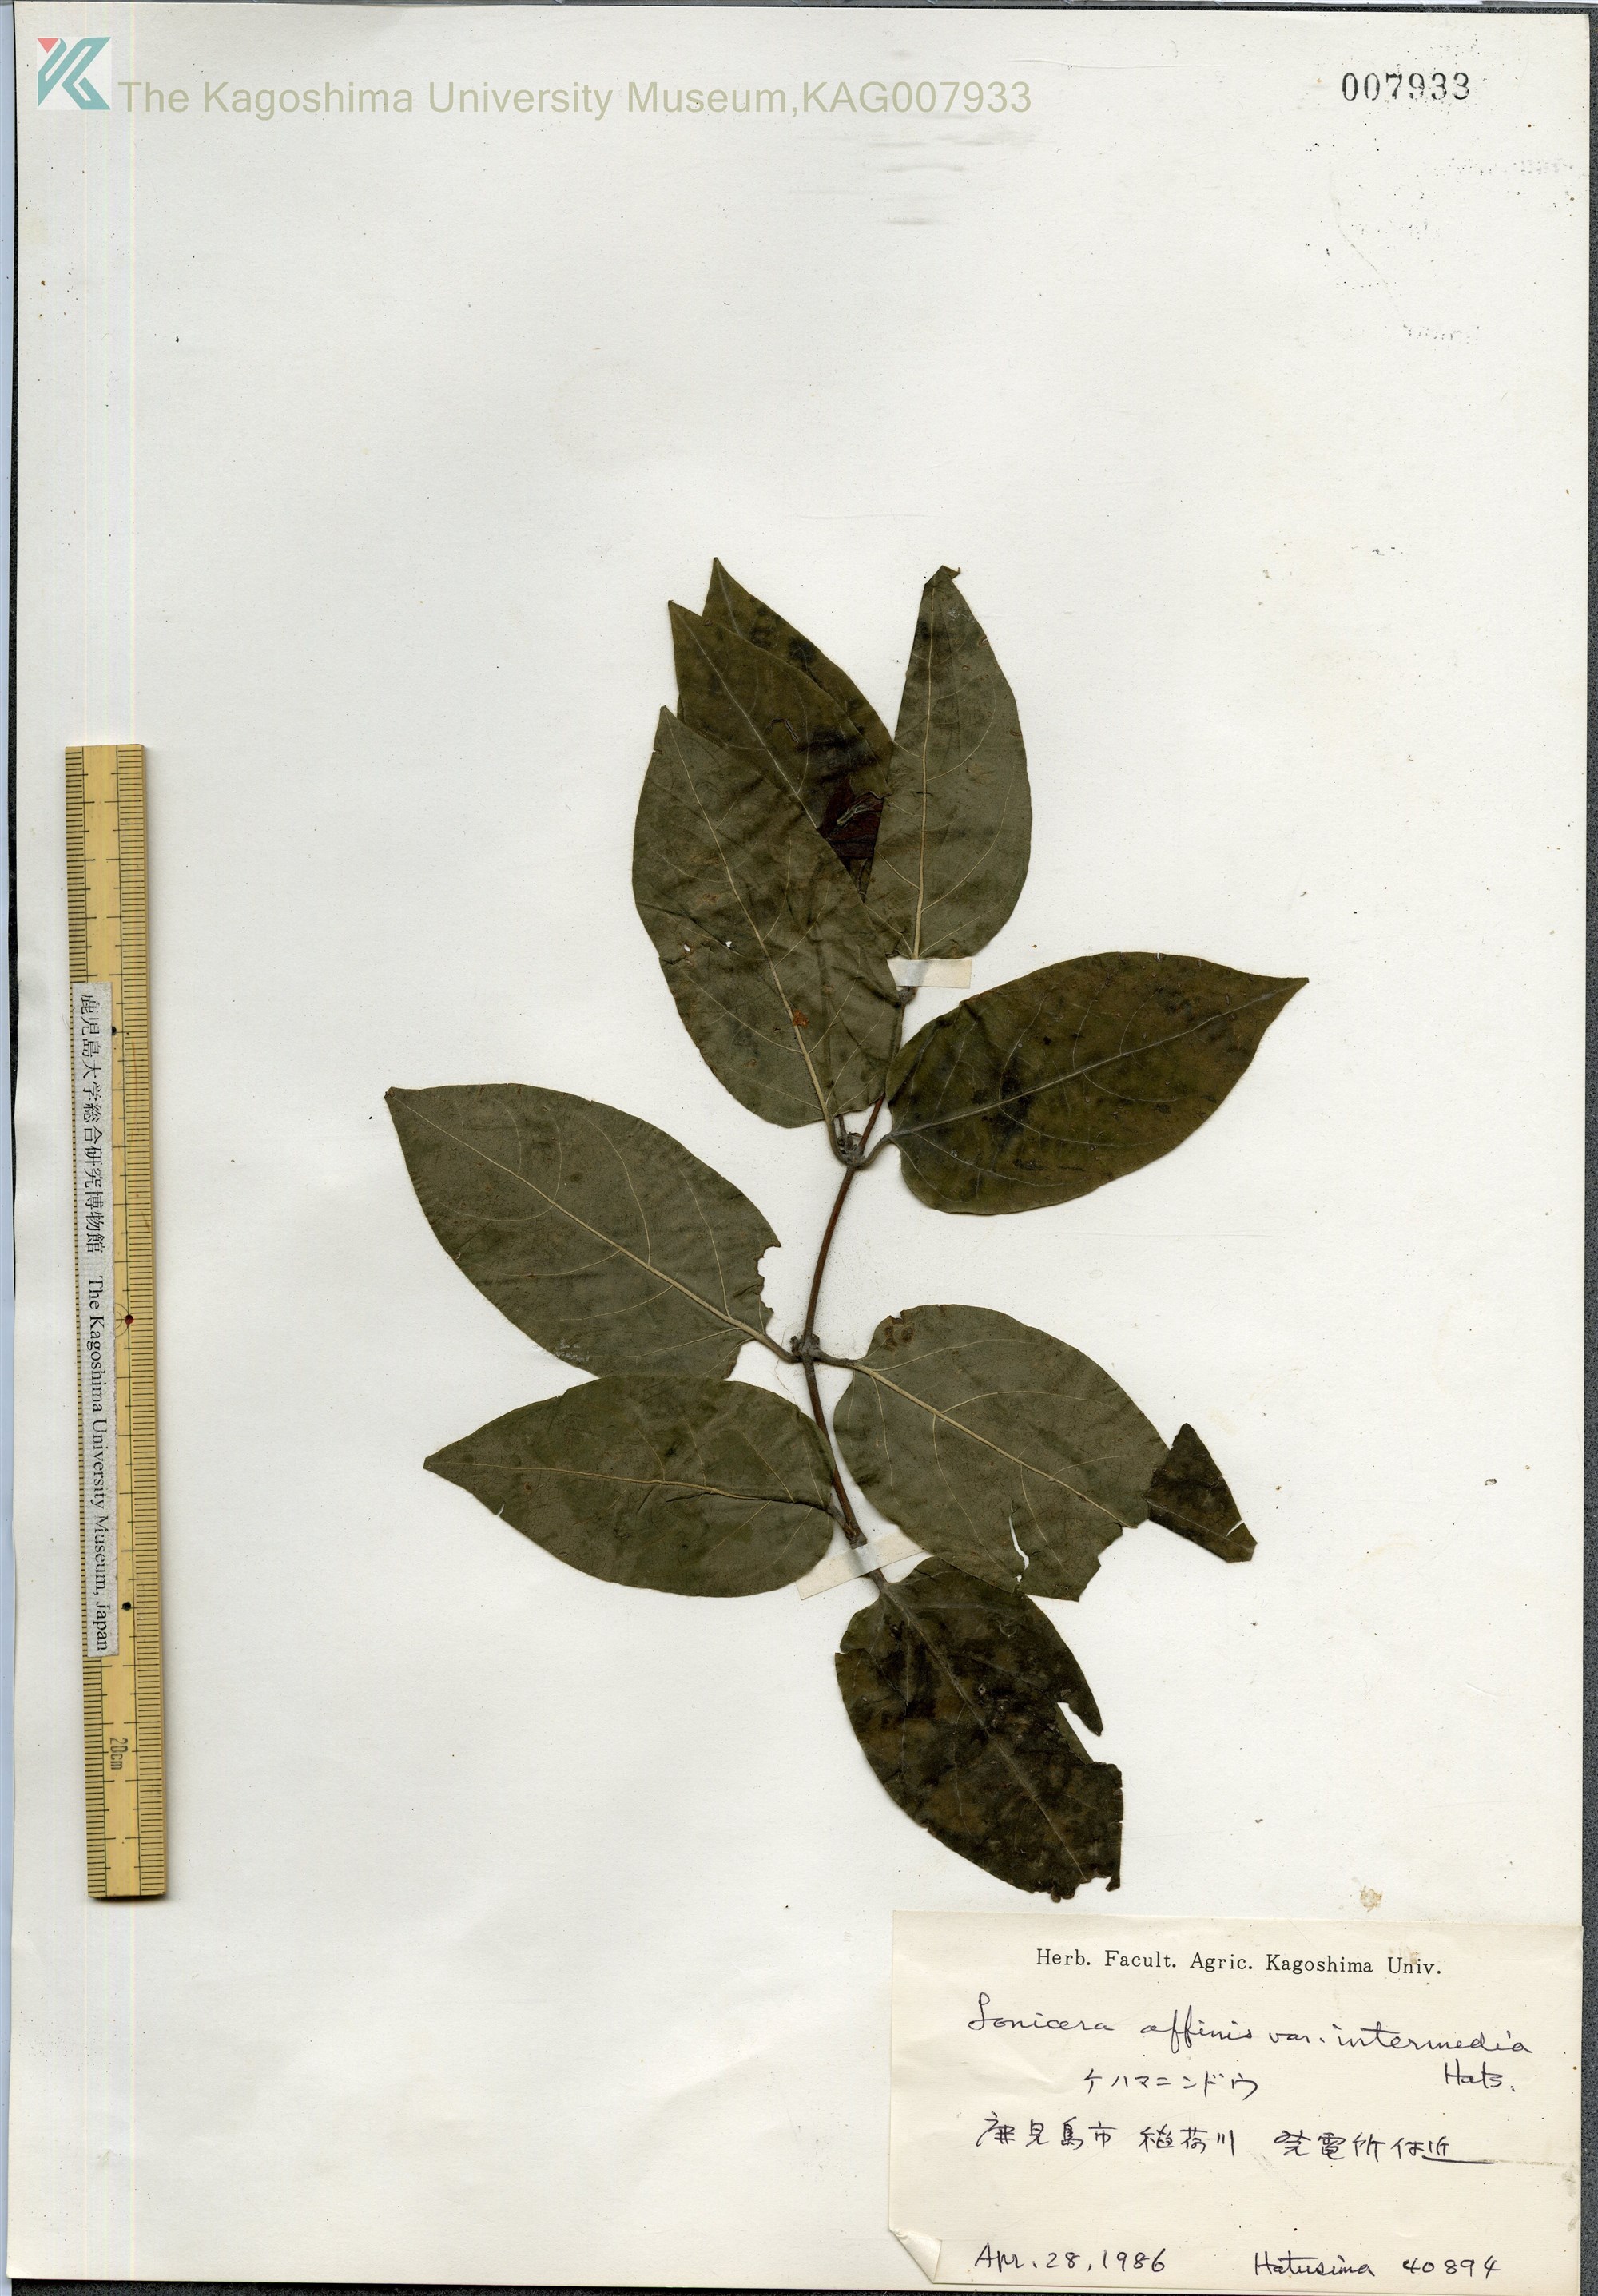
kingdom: Plantae
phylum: Tracheophyta
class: Magnoliopsida
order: Dipsacales
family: Caprifoliaceae
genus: Lonicera
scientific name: Lonicera affinis
